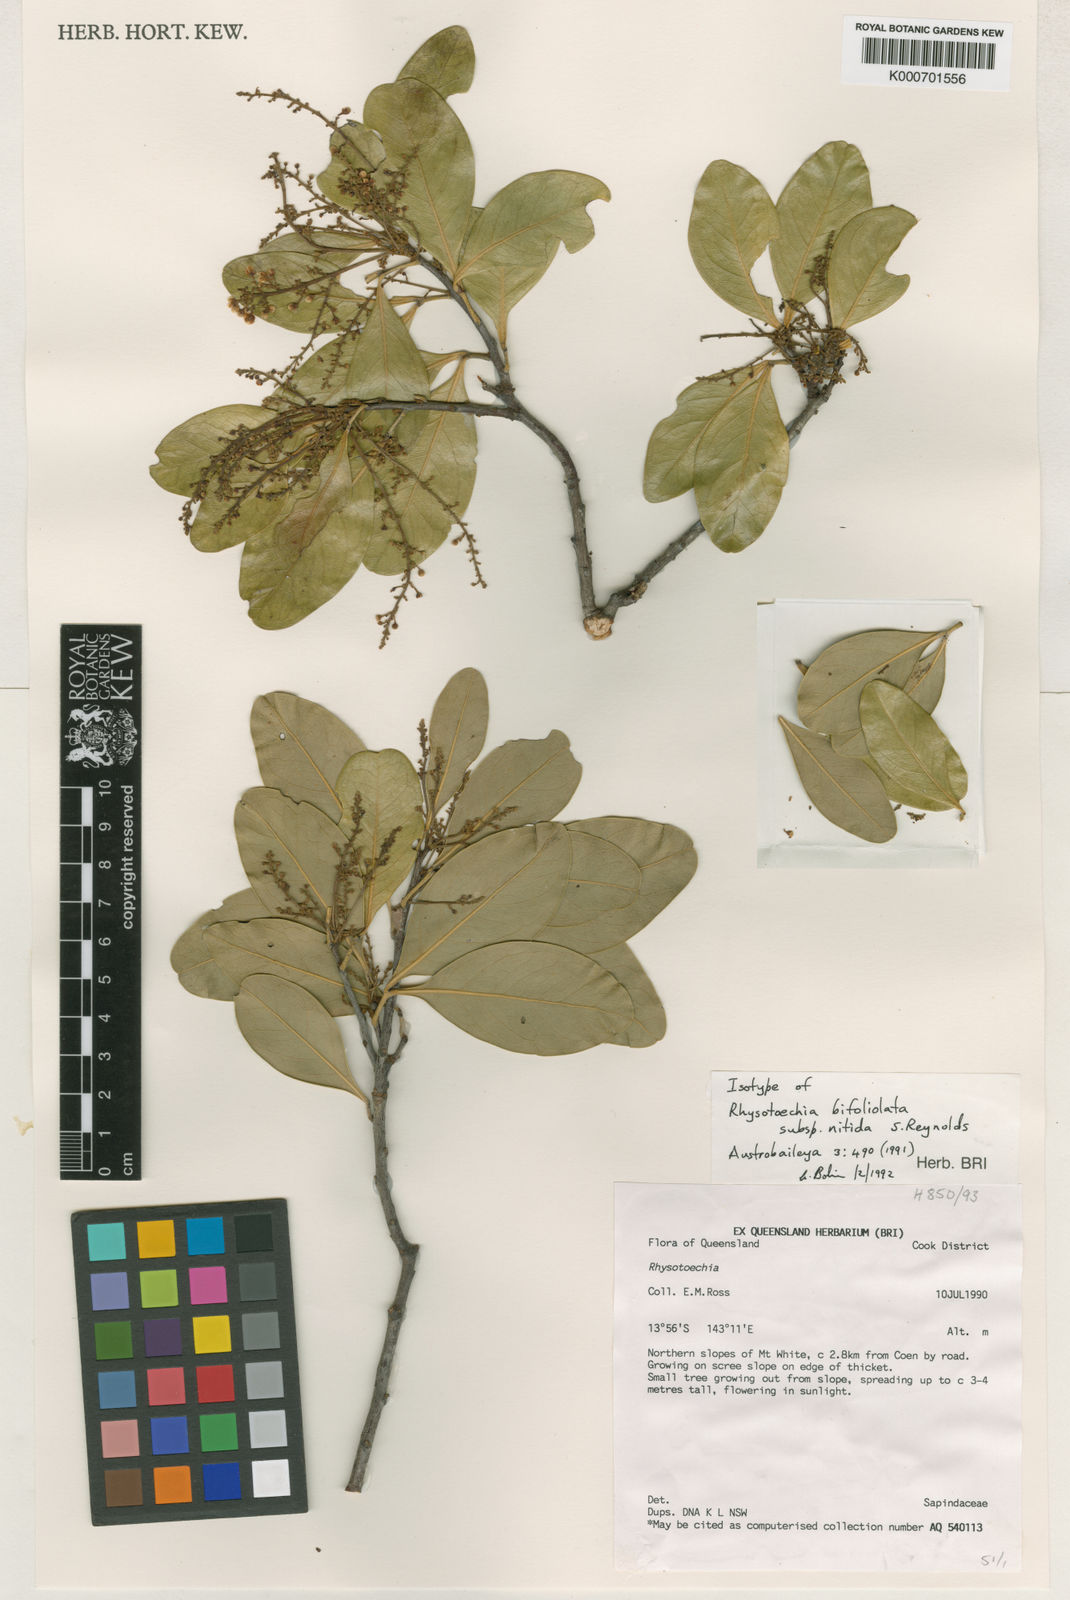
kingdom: Plantae
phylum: Tracheophyta
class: Magnoliopsida
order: Sapindales
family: Sapindaceae
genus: Rhysotoechia
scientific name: Rhysotoechia bifoliolata
